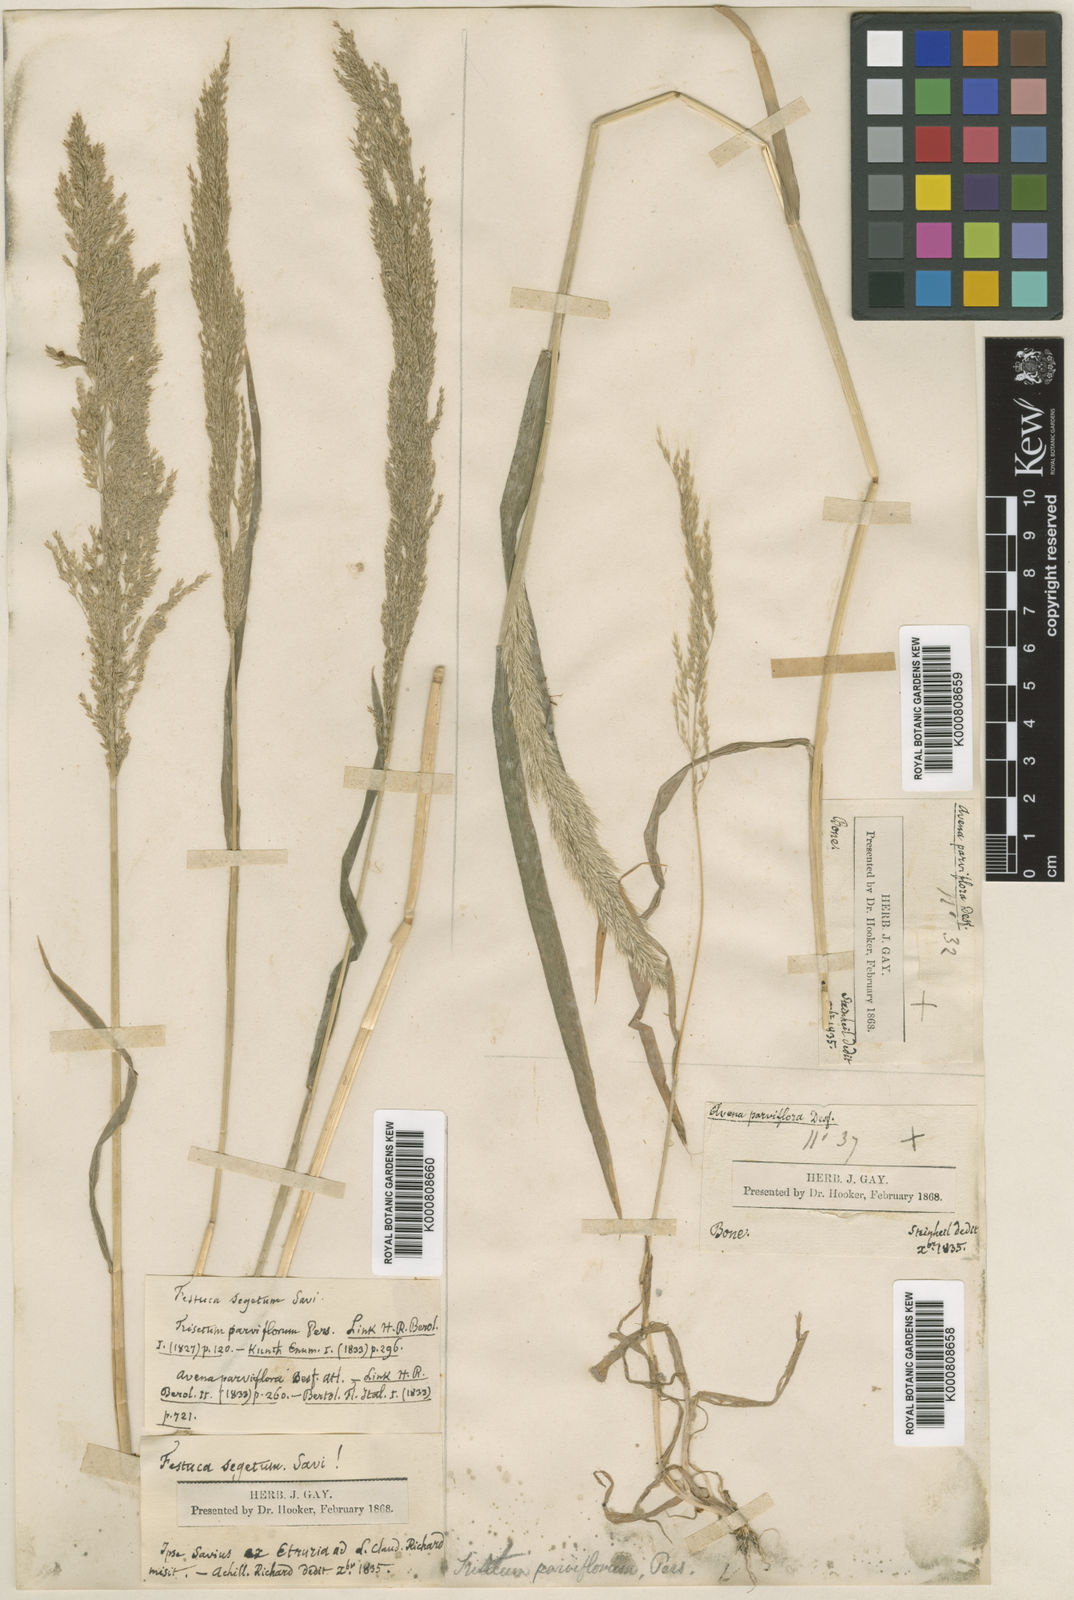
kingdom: Plantae
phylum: Tracheophyta
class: Liliopsida
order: Poales
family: Poaceae
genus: Trisetaria
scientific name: Trisetaria parviflora
